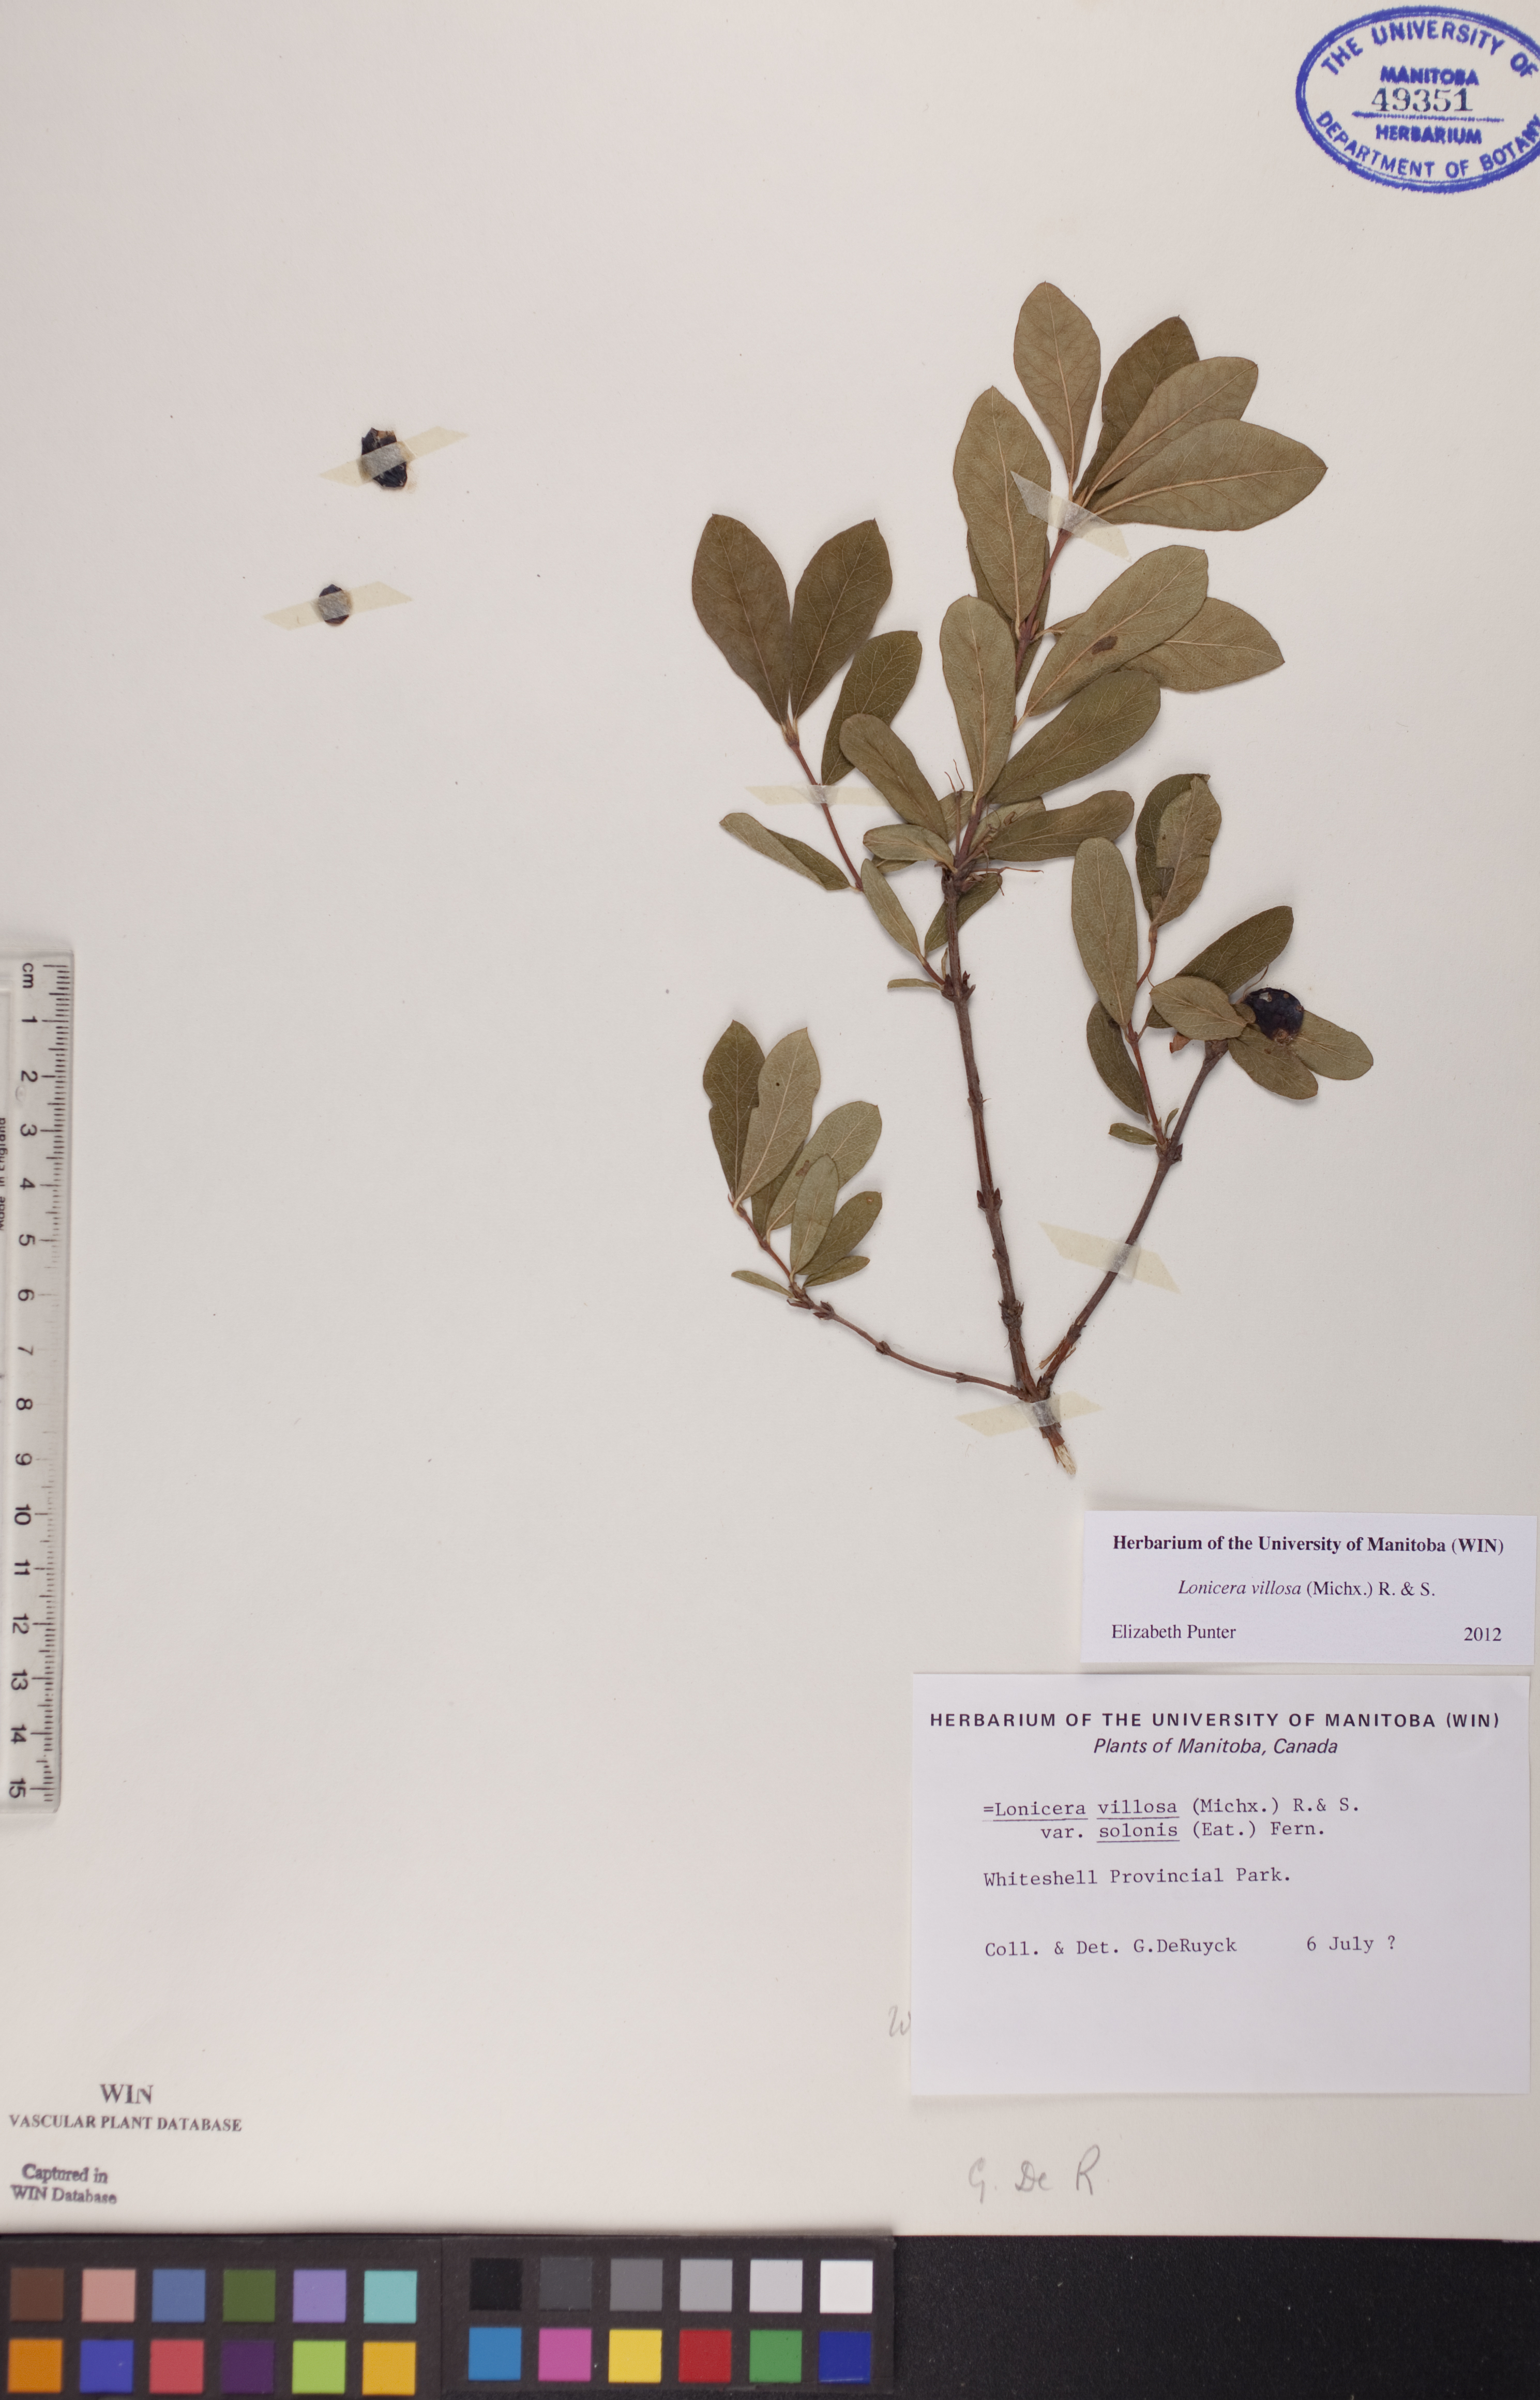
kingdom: Plantae
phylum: Tracheophyta
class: Magnoliopsida
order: Dipsacales
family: Caprifoliaceae
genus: Lonicera
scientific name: Lonicera villosa
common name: Mountain fly-honeysuckle
